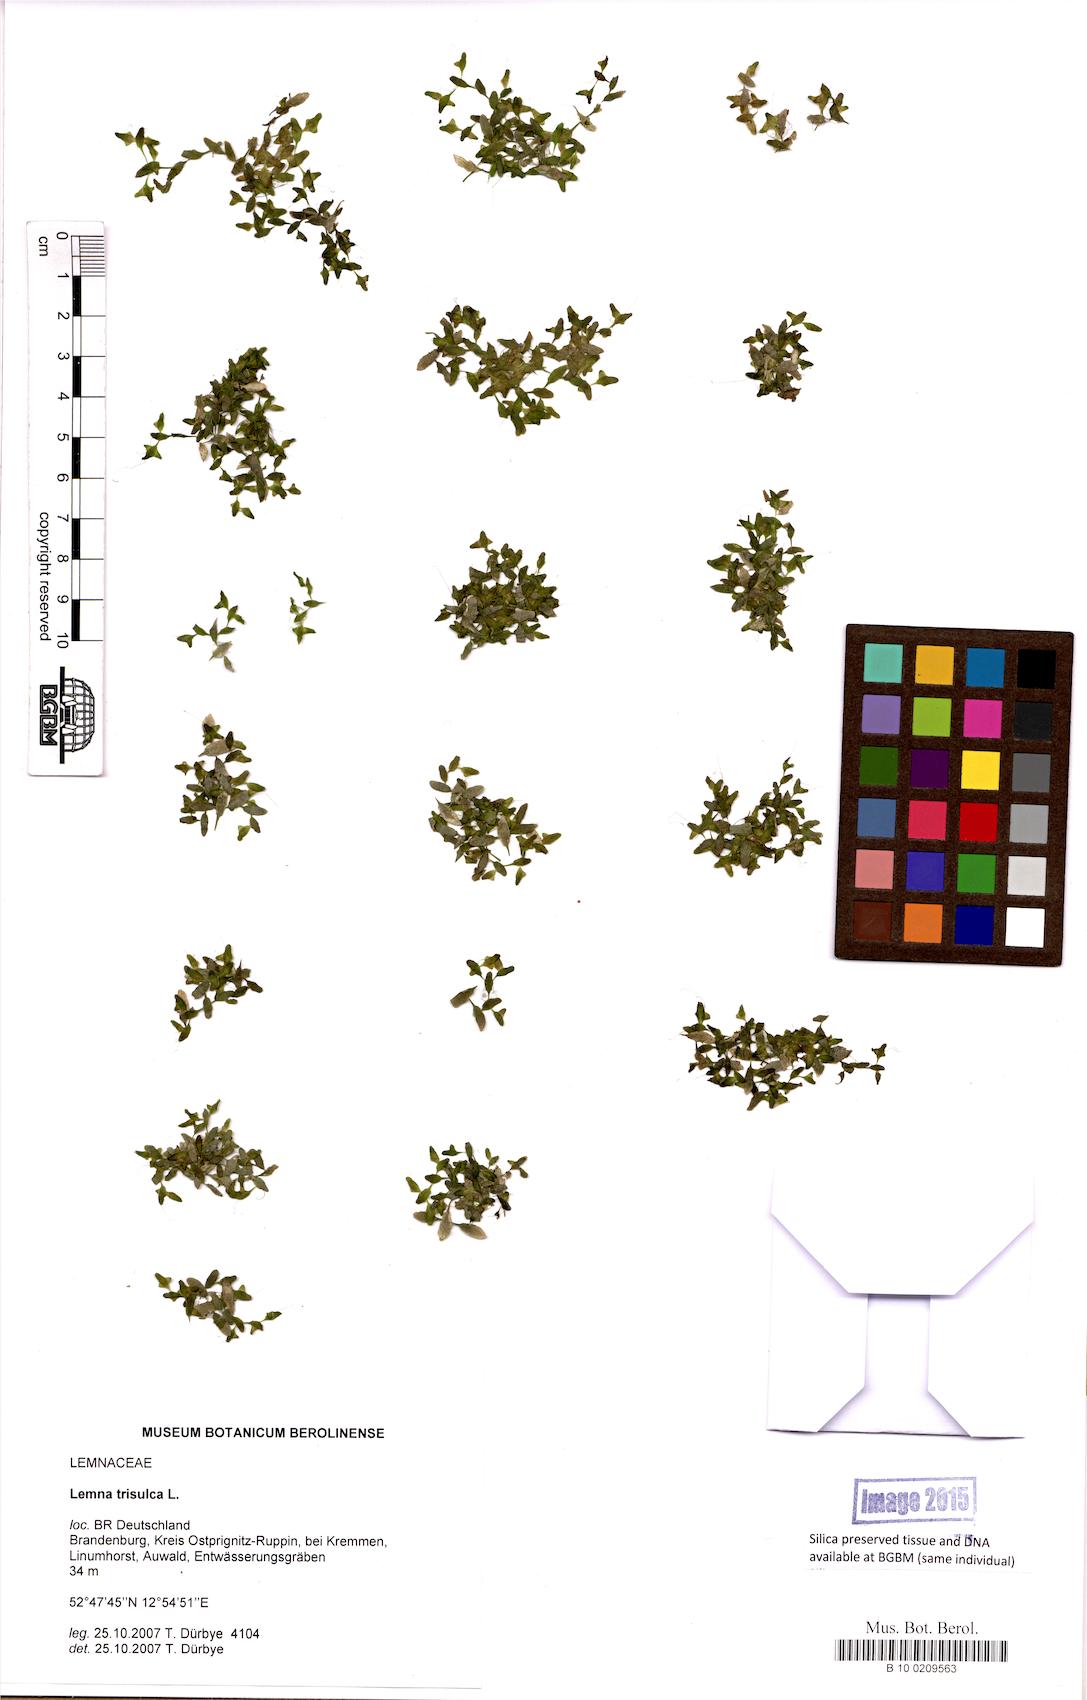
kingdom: Plantae
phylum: Tracheophyta
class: Liliopsida
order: Alismatales
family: Araceae
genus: Lemna
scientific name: Lemna trisulca
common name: Ivy-leaved duckweed
